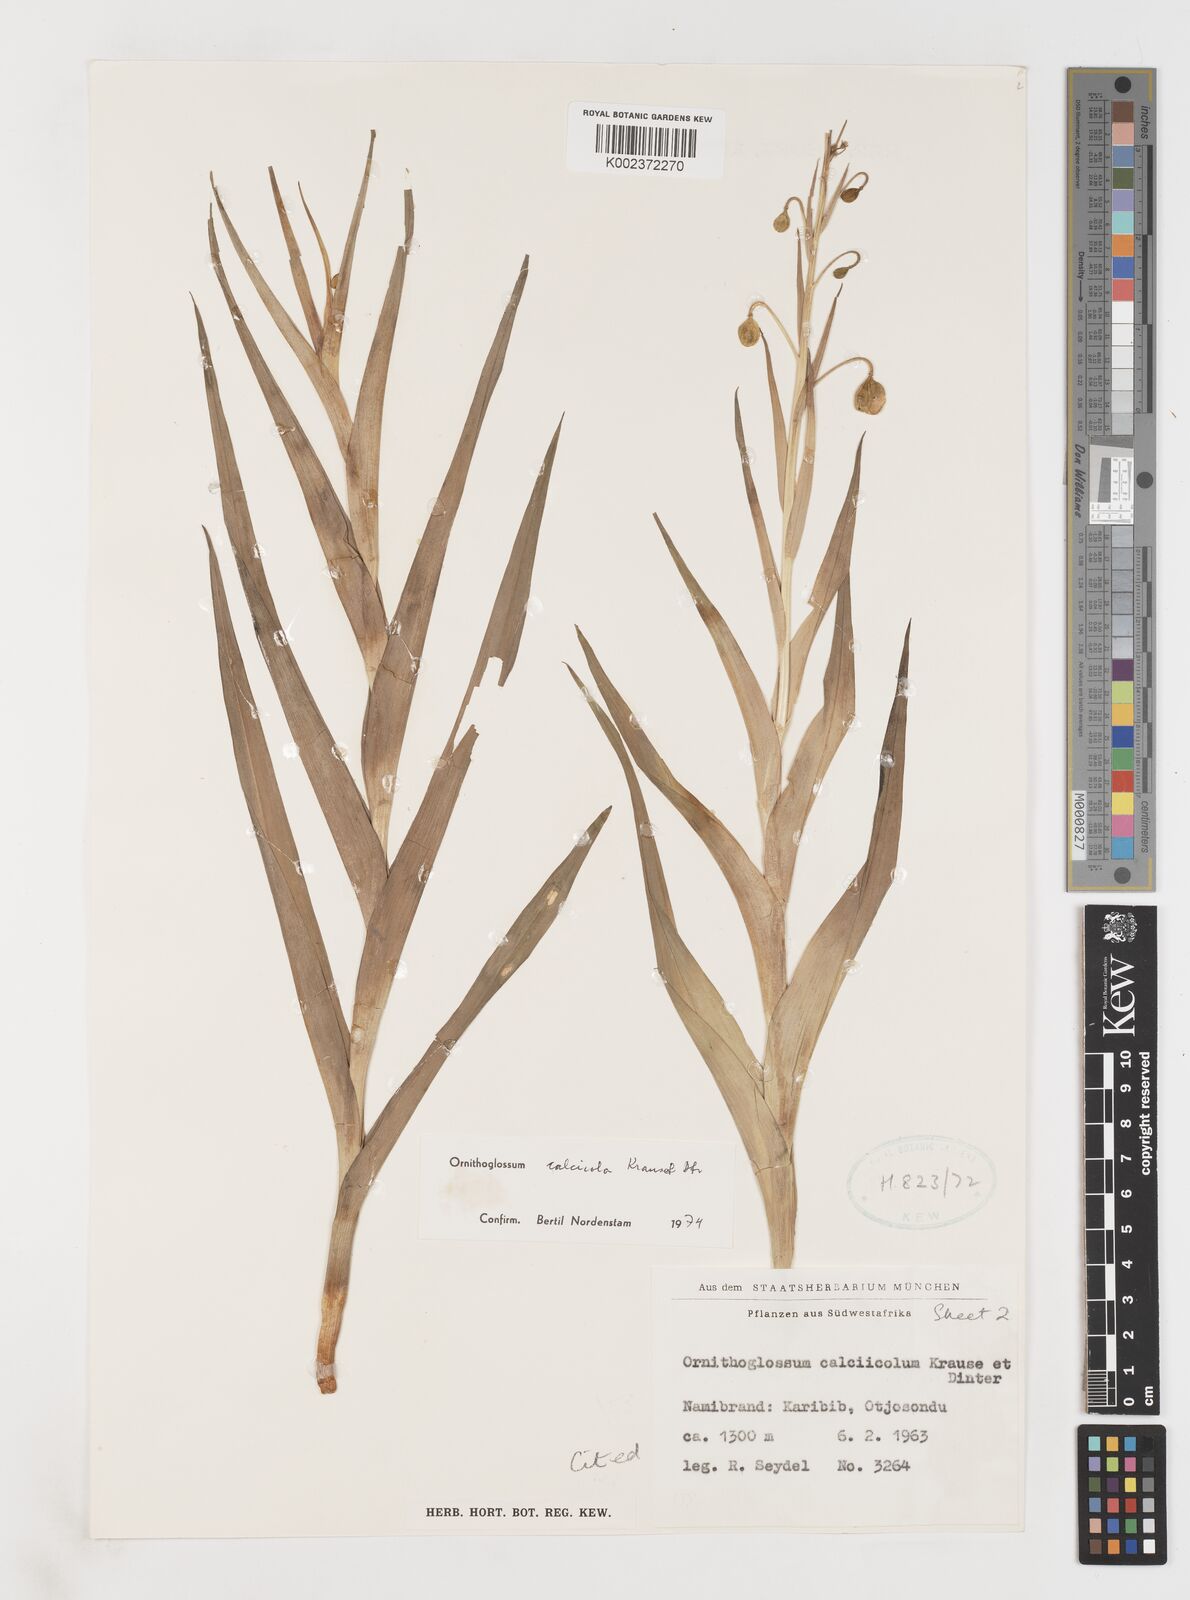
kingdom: Plantae
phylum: Tracheophyta
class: Liliopsida
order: Liliales
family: Colchicaceae
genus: Ornithoglossum
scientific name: Ornithoglossum calcicola
